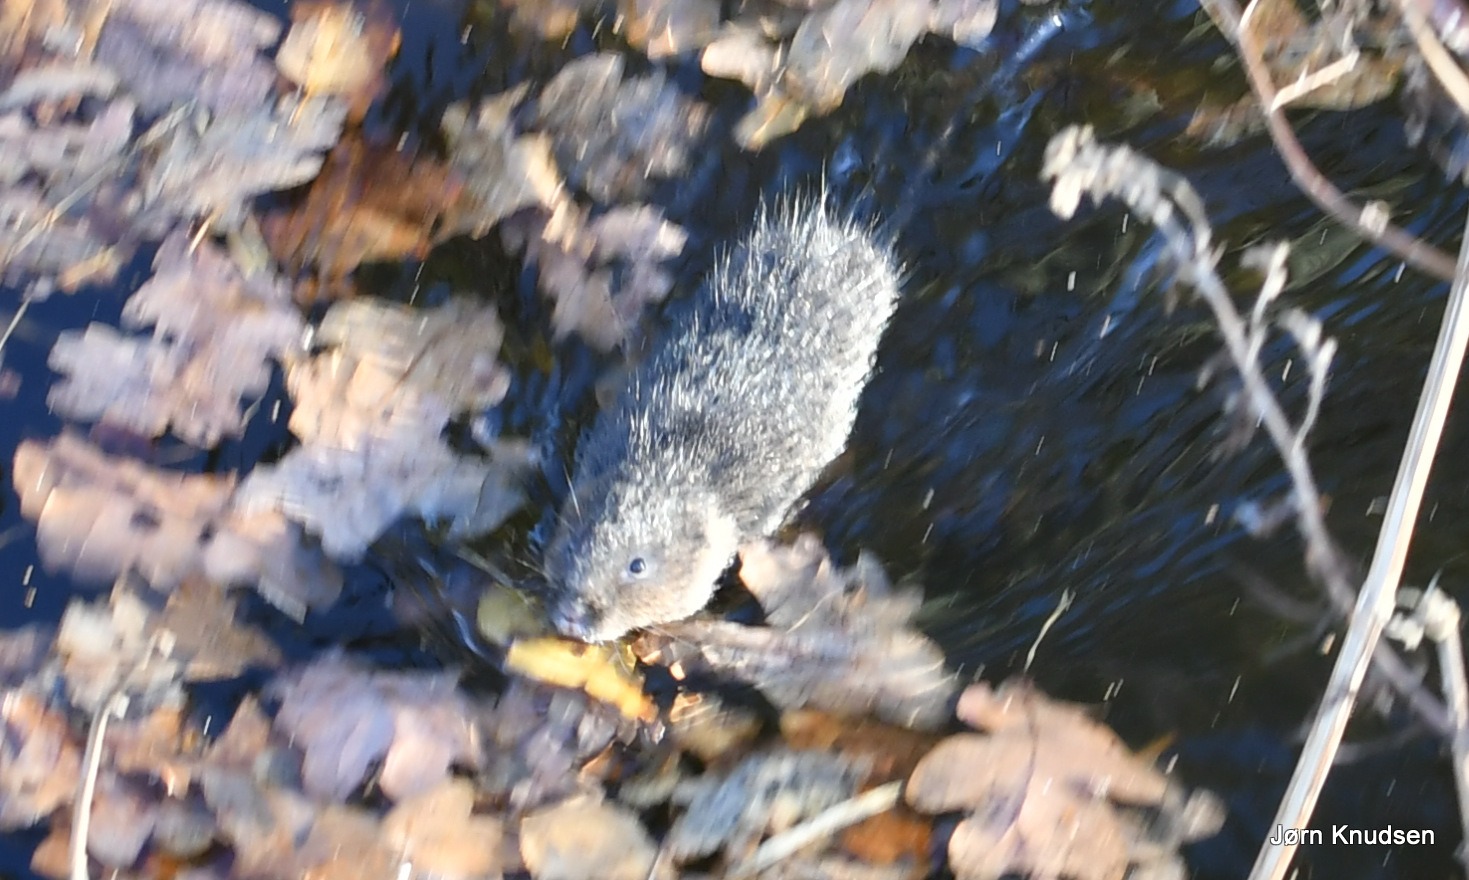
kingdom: Animalia
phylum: Chordata
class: Mammalia
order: Rodentia
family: Cricetidae
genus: Arvicola
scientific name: Arvicola amphibius
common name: Mosegris
